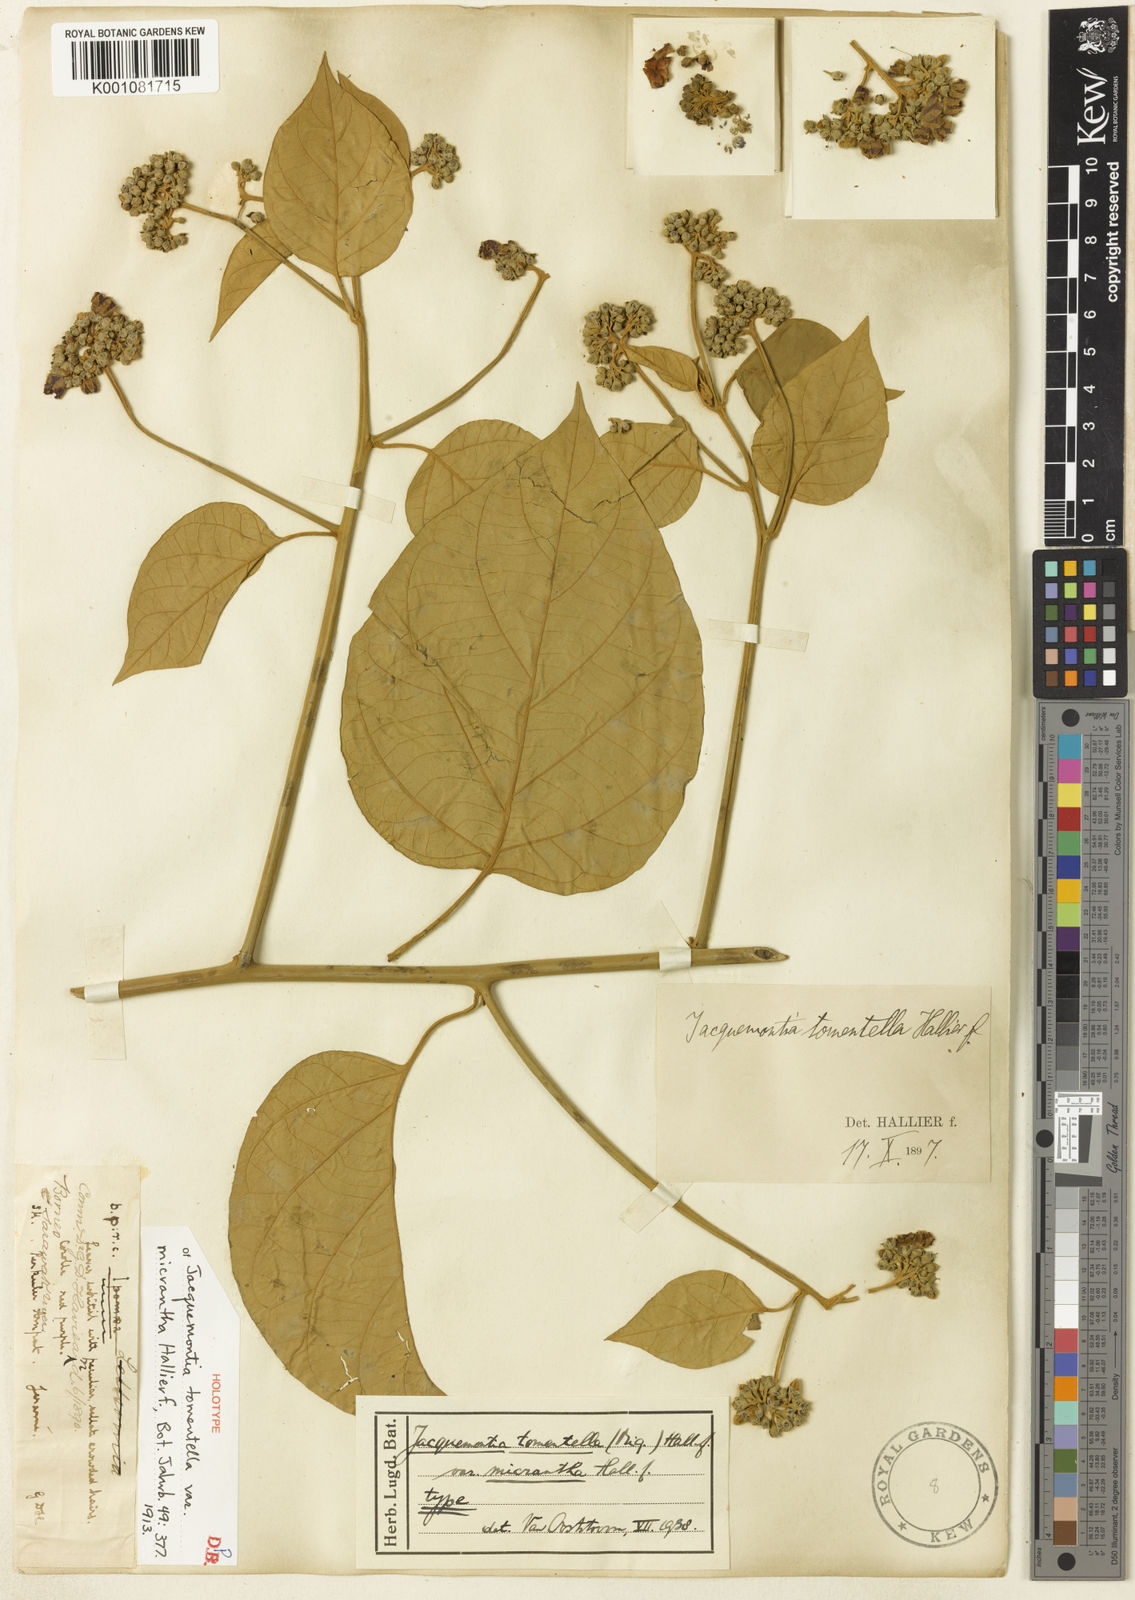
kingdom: Plantae
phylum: Tracheophyta
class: Magnoliopsida
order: Solanales
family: Convolvulaceae
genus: Jacquemontia
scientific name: Jacquemontia tomentella
